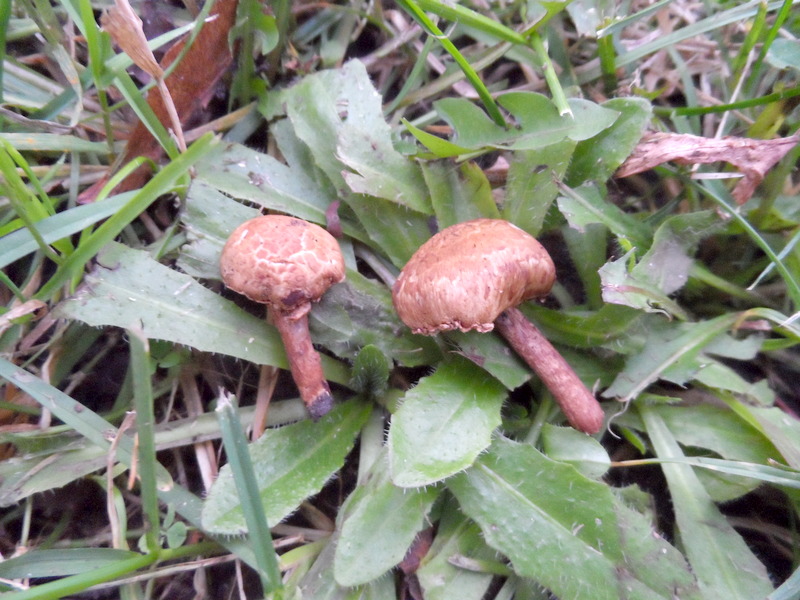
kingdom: Fungi
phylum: Basidiomycota
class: Agaricomycetes
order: Agaricales
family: Inocybaceae
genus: Inocybe
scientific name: Inocybe appendiculata
